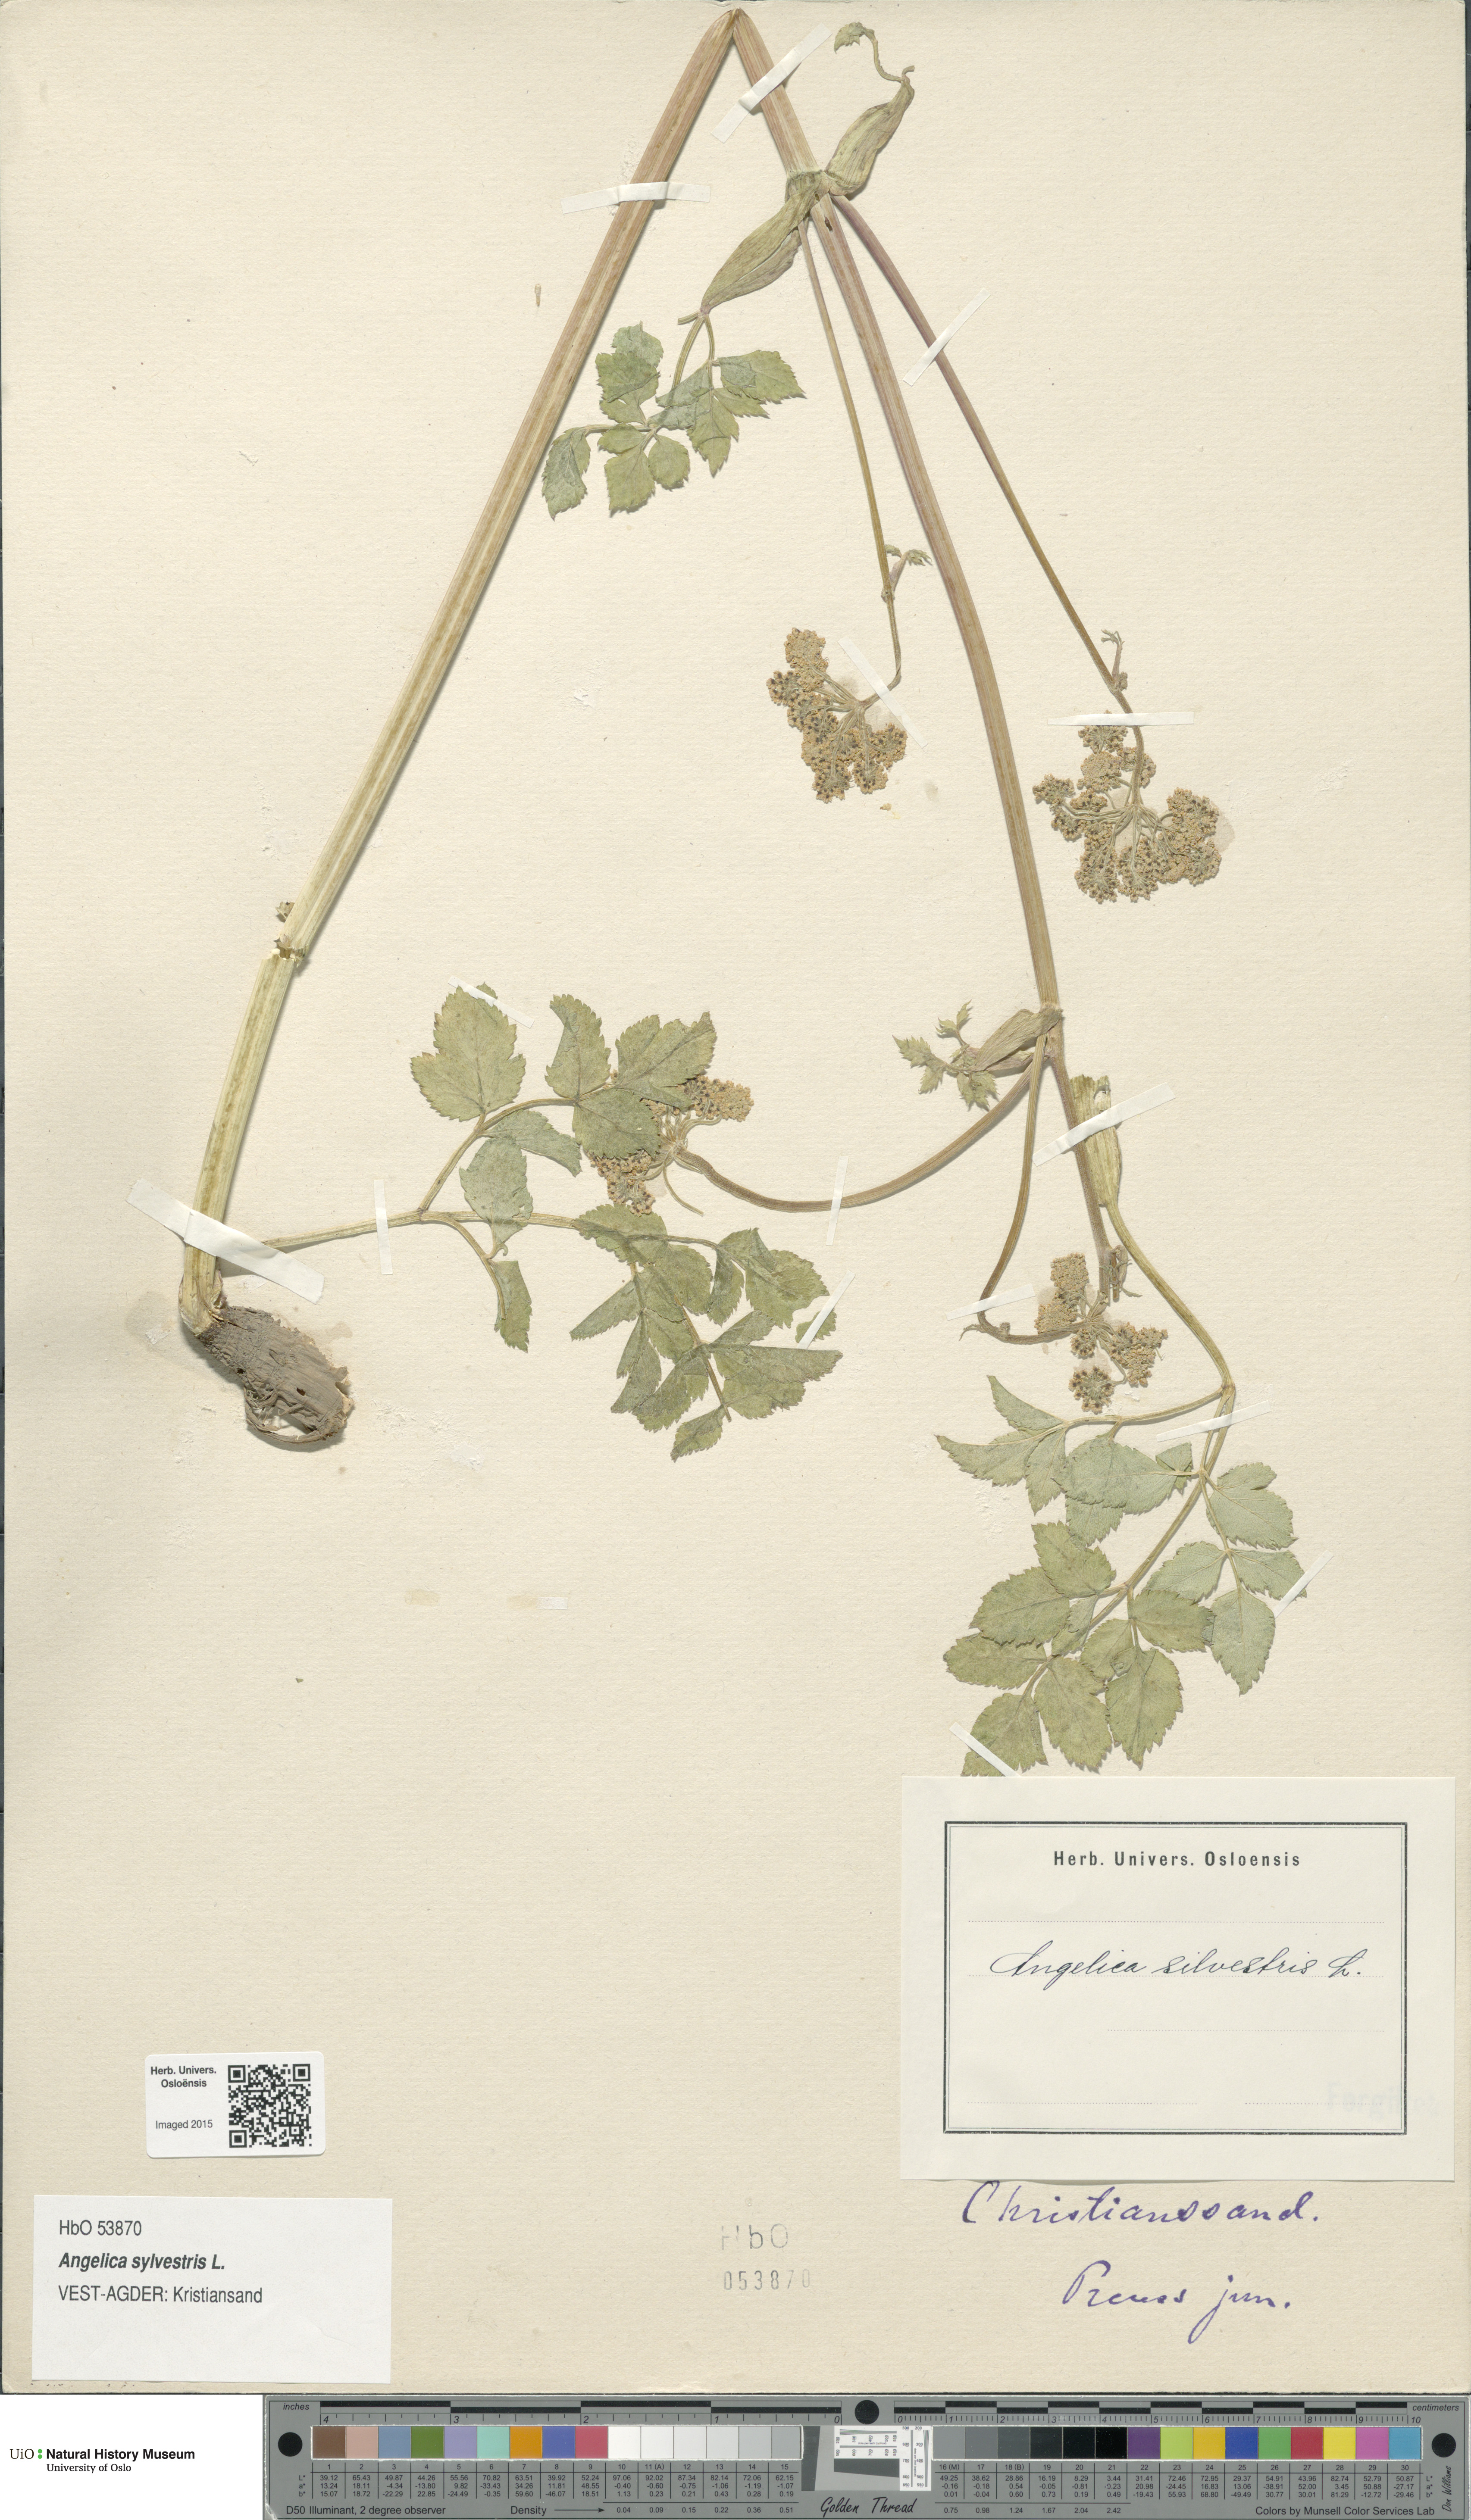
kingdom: Plantae
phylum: Tracheophyta
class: Magnoliopsida
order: Apiales
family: Apiaceae
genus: Angelica
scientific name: Angelica sylvestris
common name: Wild angelica
